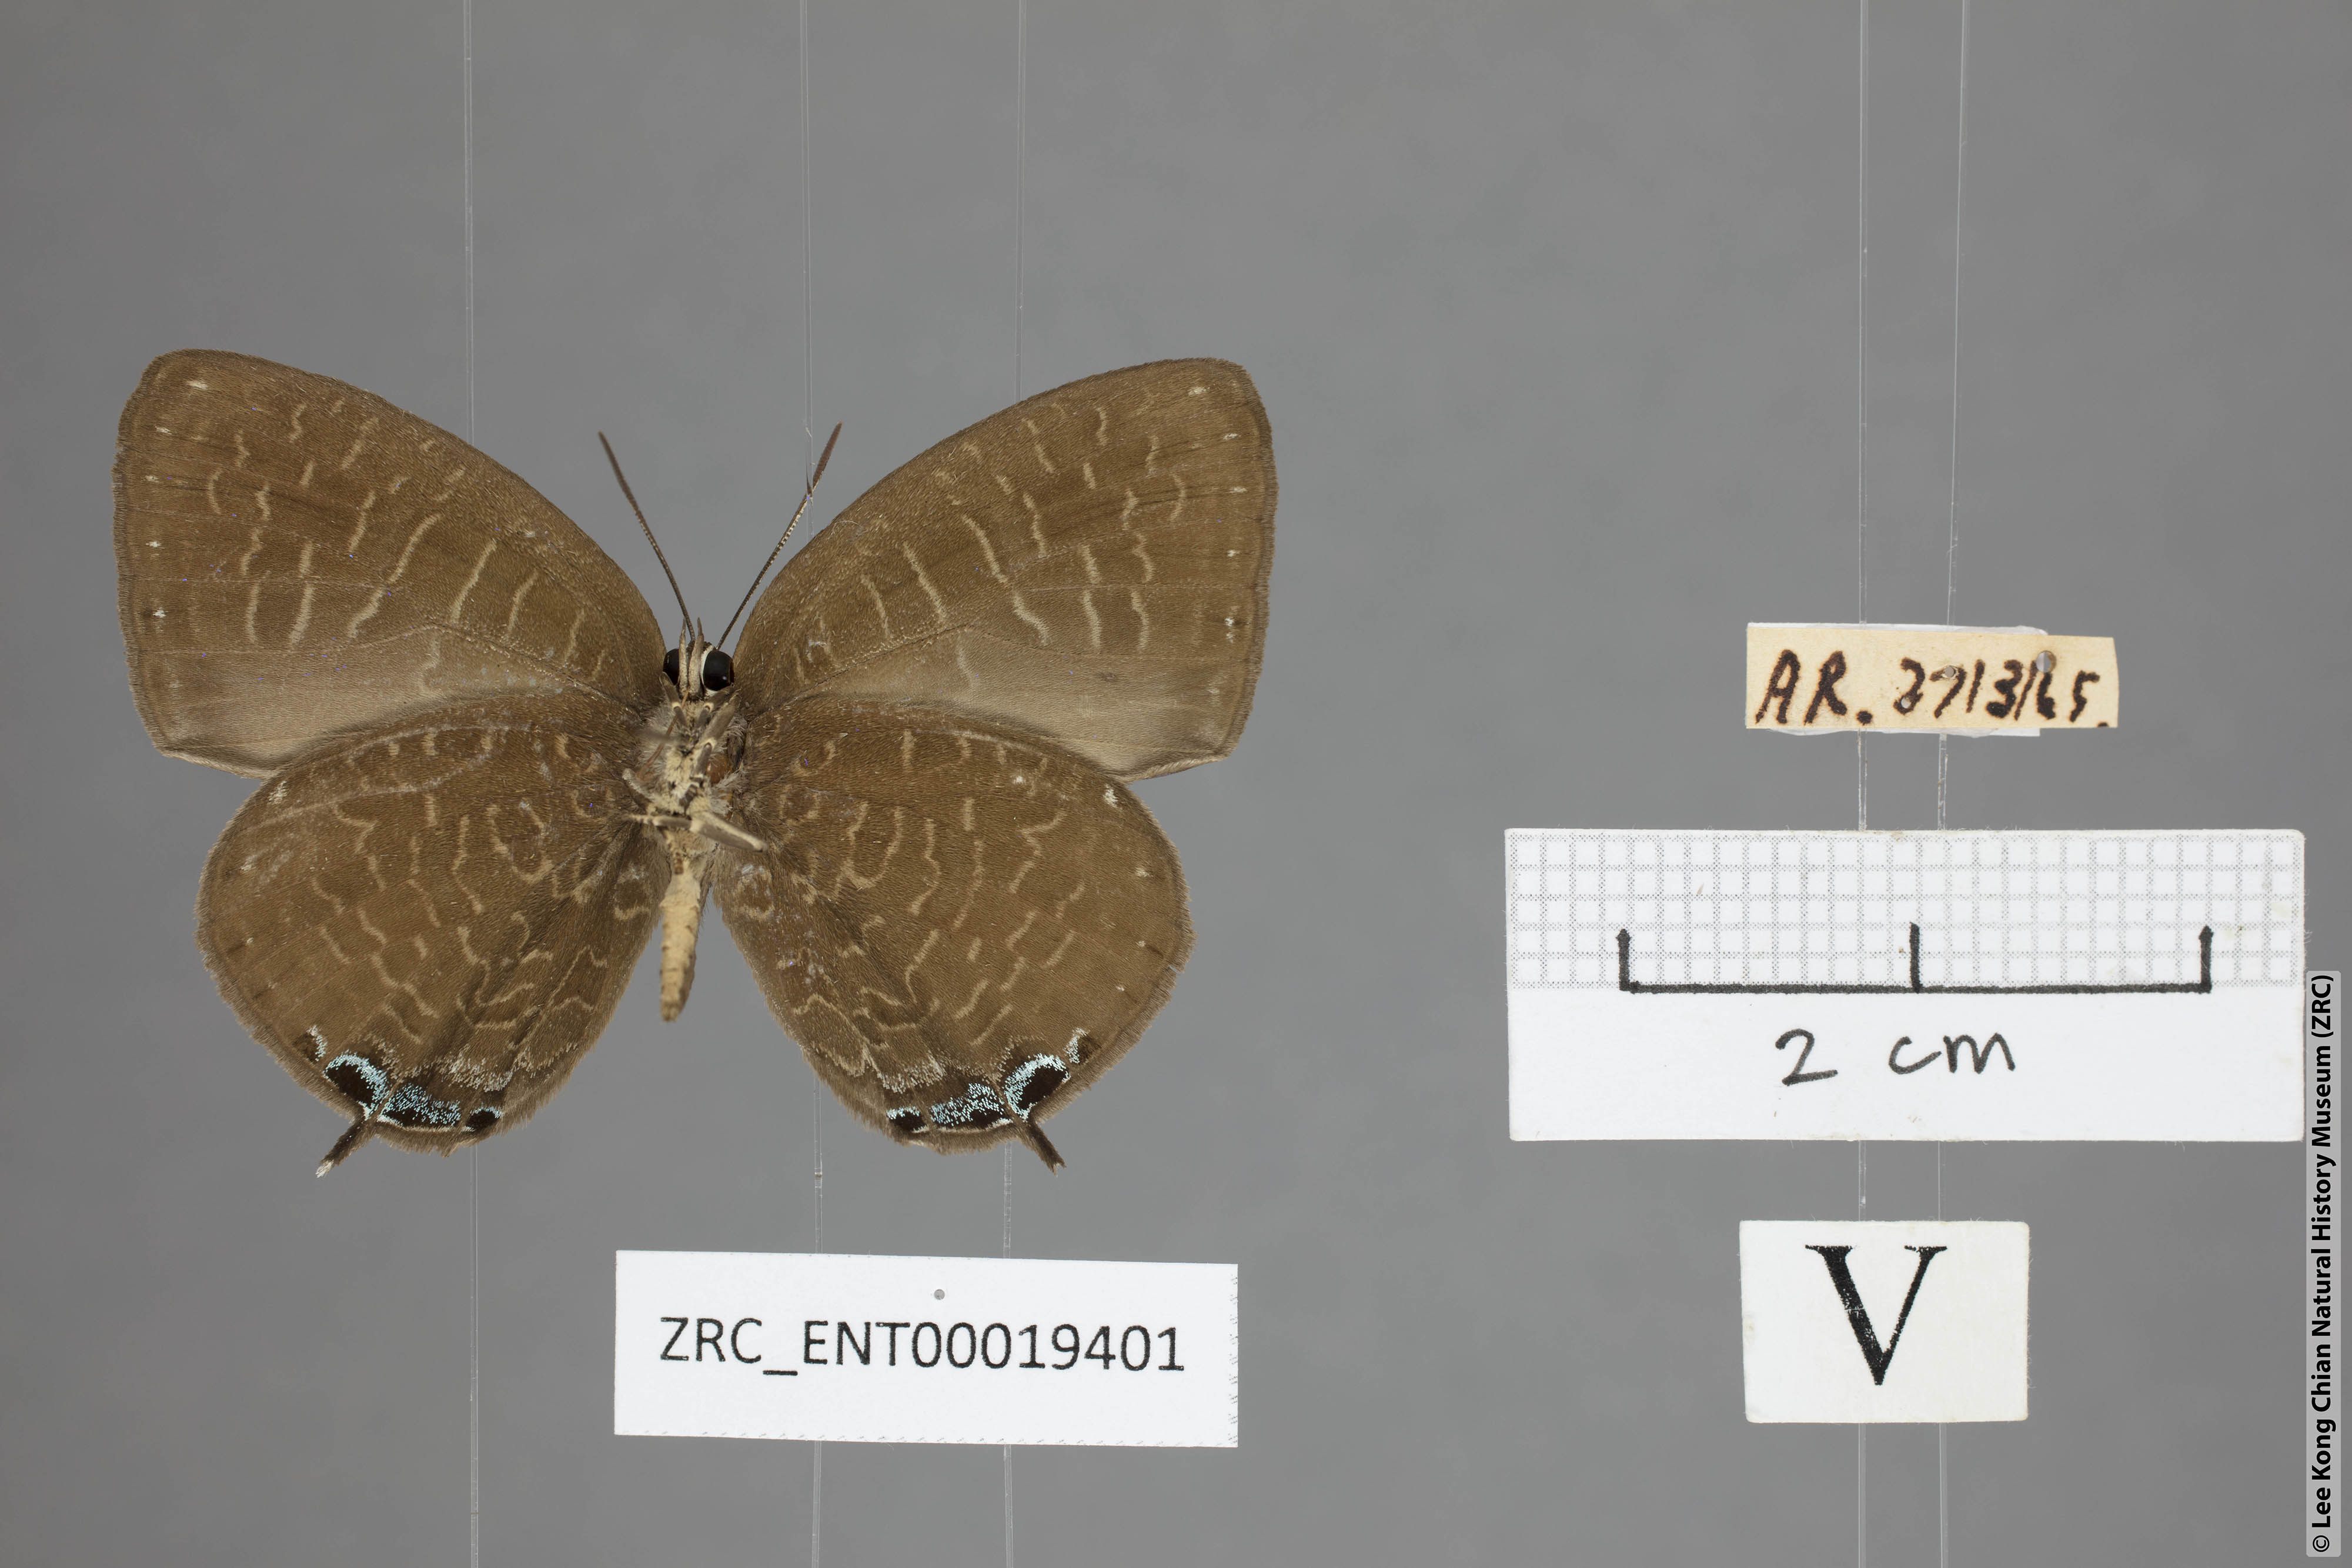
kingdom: Animalia
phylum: Arthropoda
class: Insecta
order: Lepidoptera
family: Lycaenidae
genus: Arhopala
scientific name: Arhopala democritus
